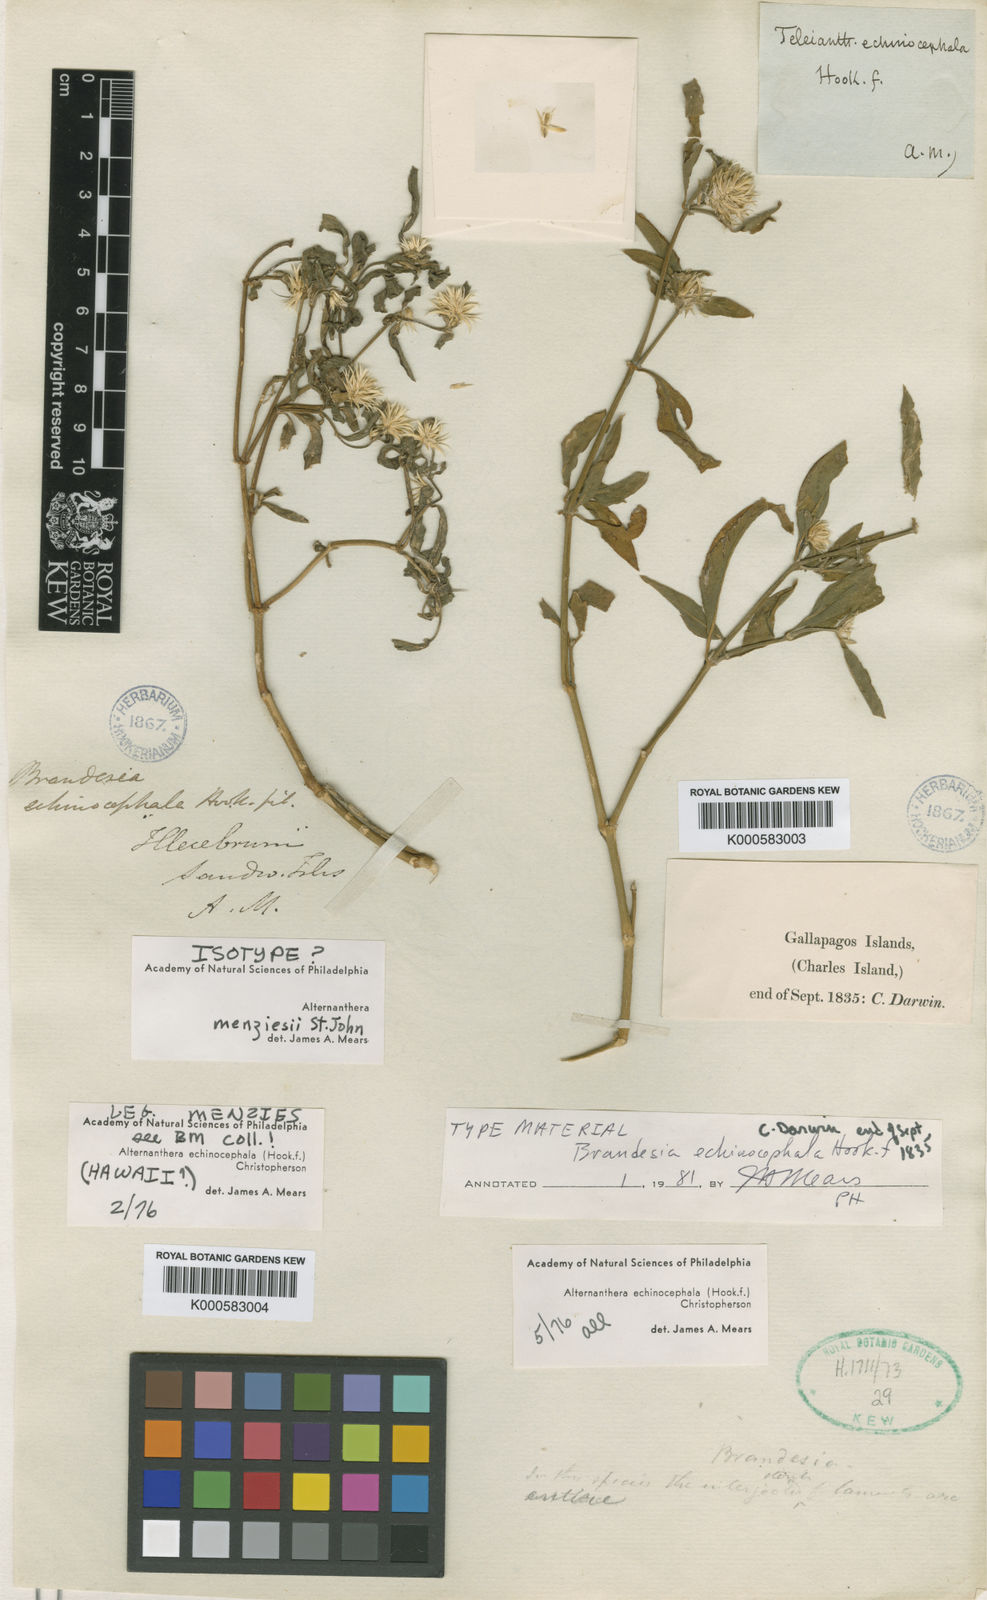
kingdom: Plantae
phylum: Tracheophyta
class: Magnoliopsida
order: Caryophyllales
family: Amaranthaceae
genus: Alternanthera
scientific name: Alternanthera echinocephala
